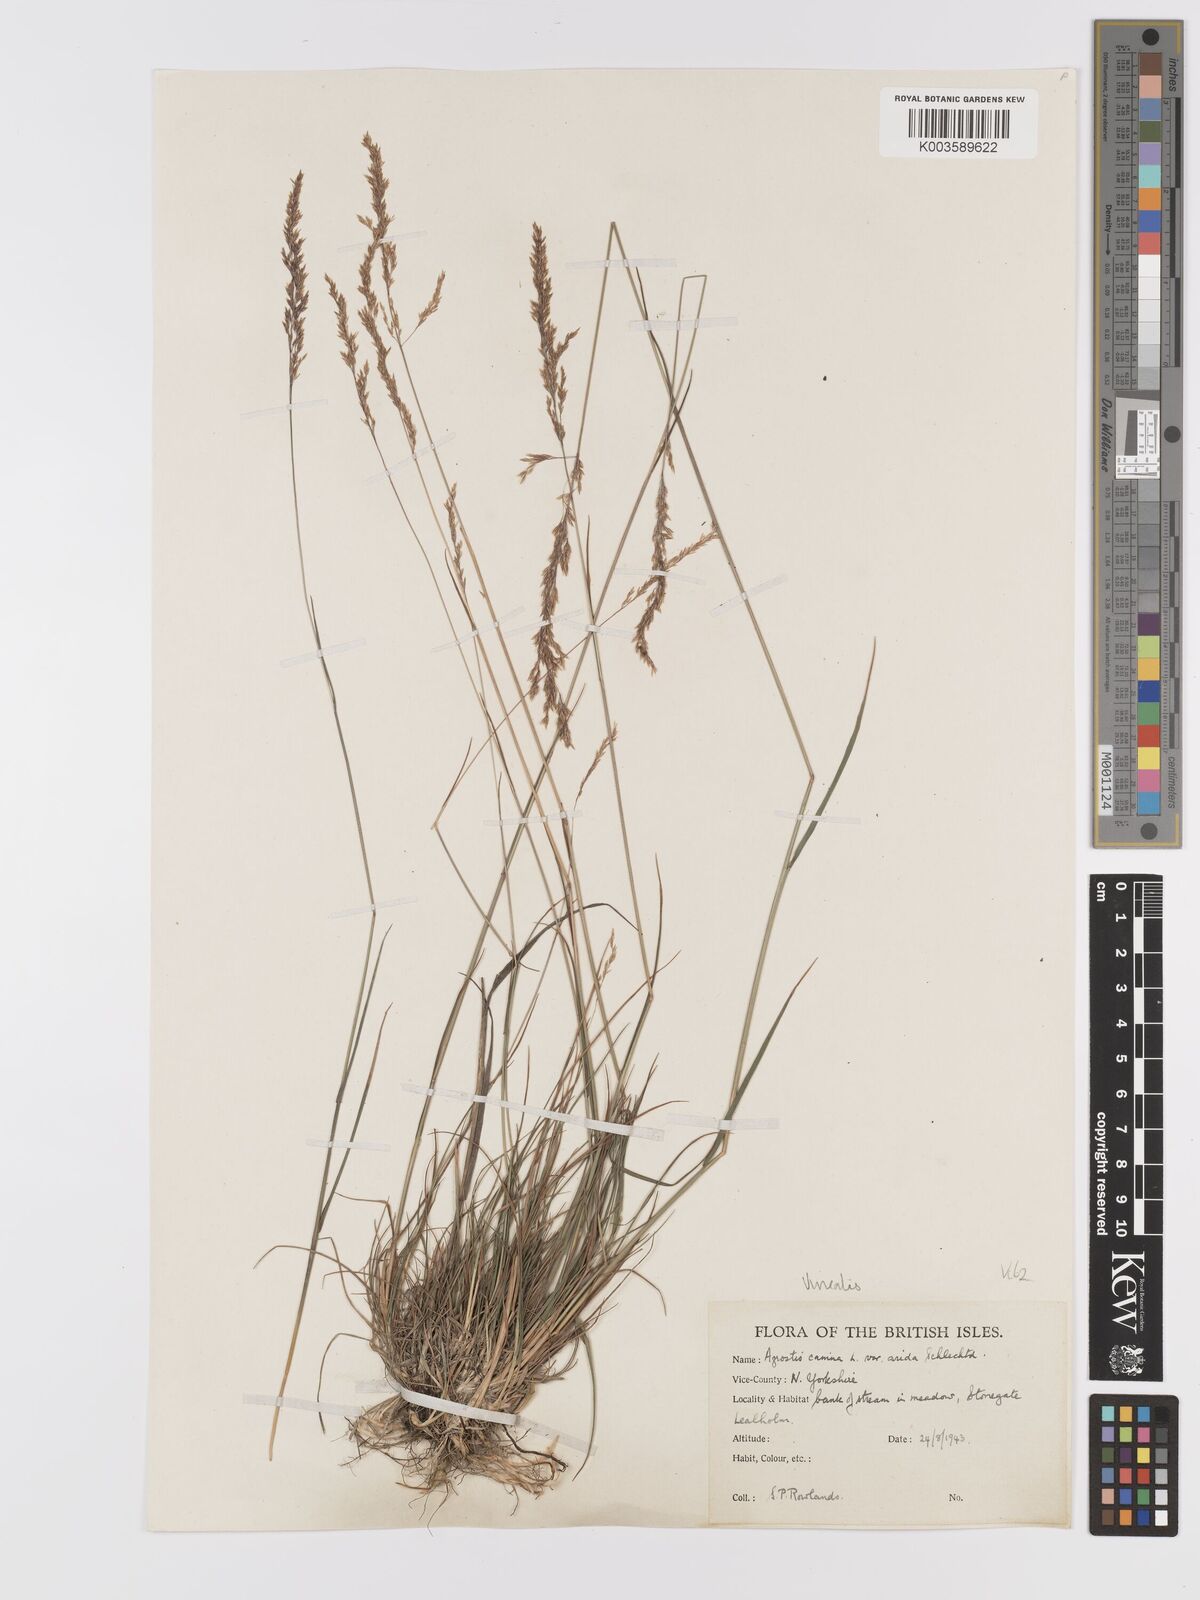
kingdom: Plantae
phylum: Tracheophyta
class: Liliopsida
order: Poales
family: Poaceae
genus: Agrostis
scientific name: Agrostis
